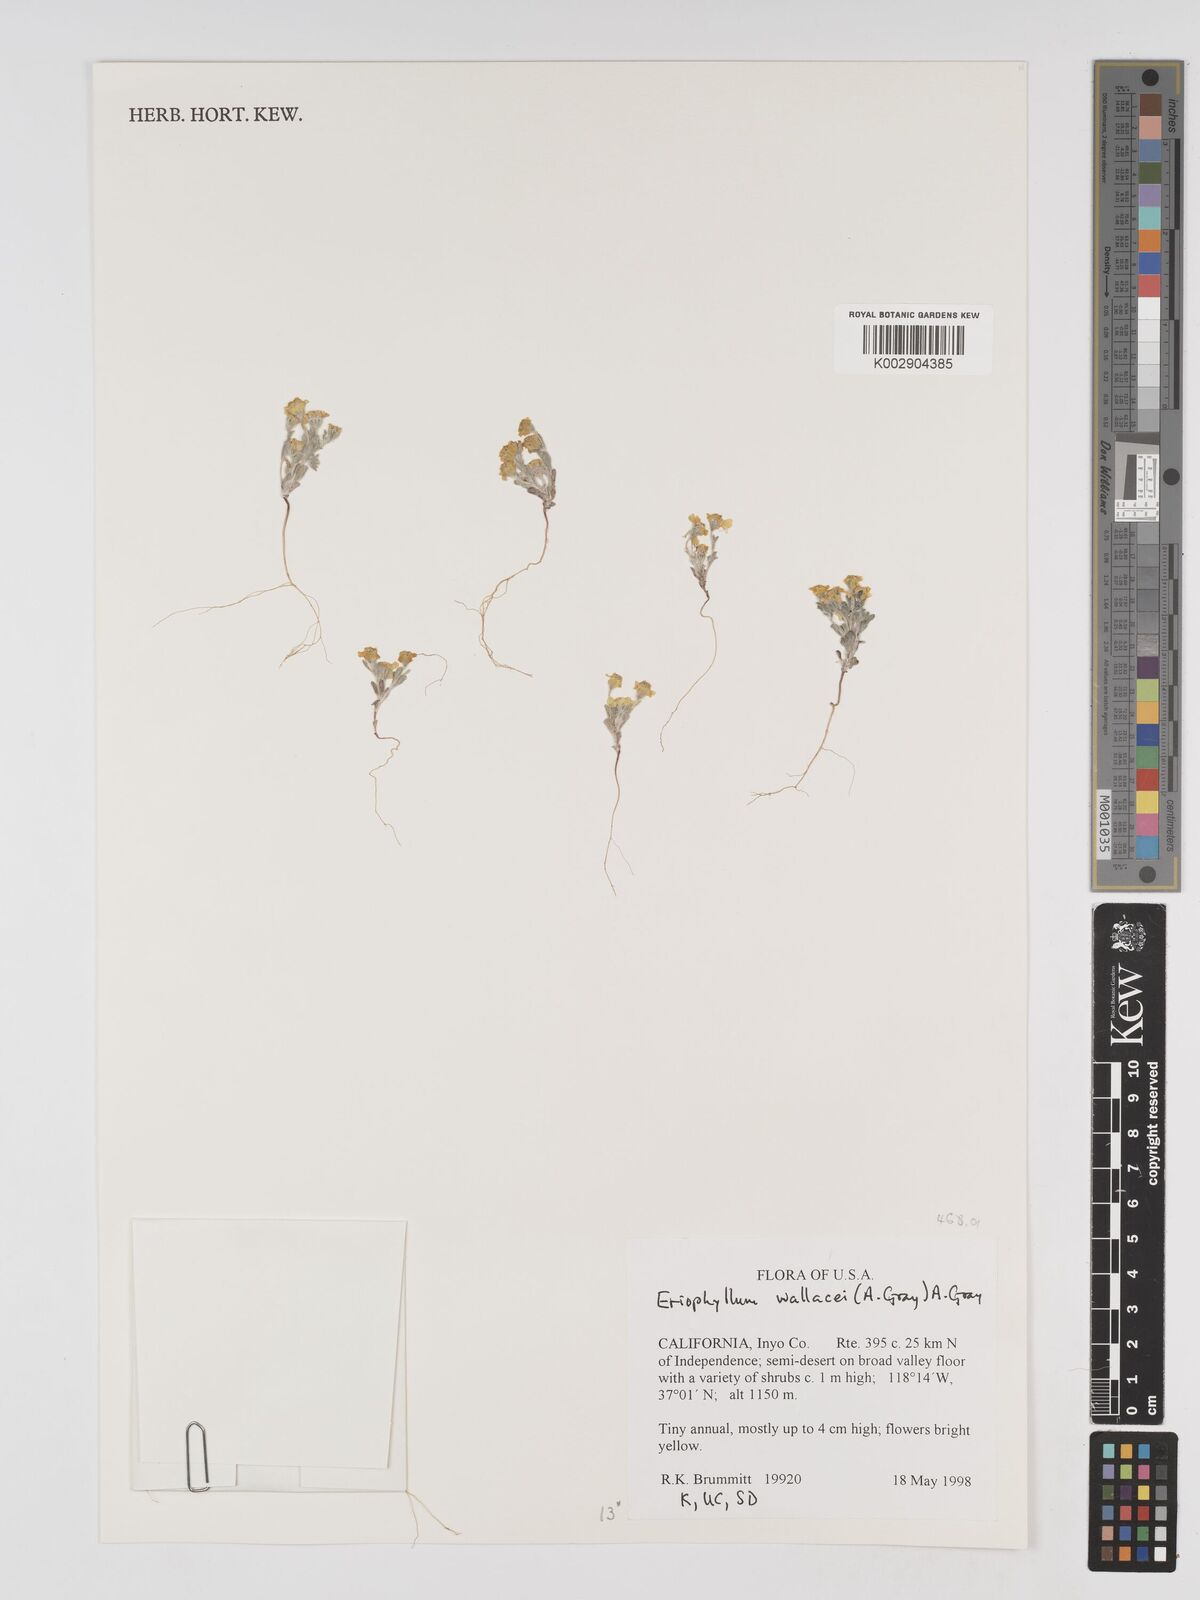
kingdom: Plantae
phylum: Tracheophyta
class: Magnoliopsida
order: Asterales
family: Asteraceae
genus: Eriophyllum
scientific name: Eriophyllum wallacei
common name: Wallace's woolly daisy
